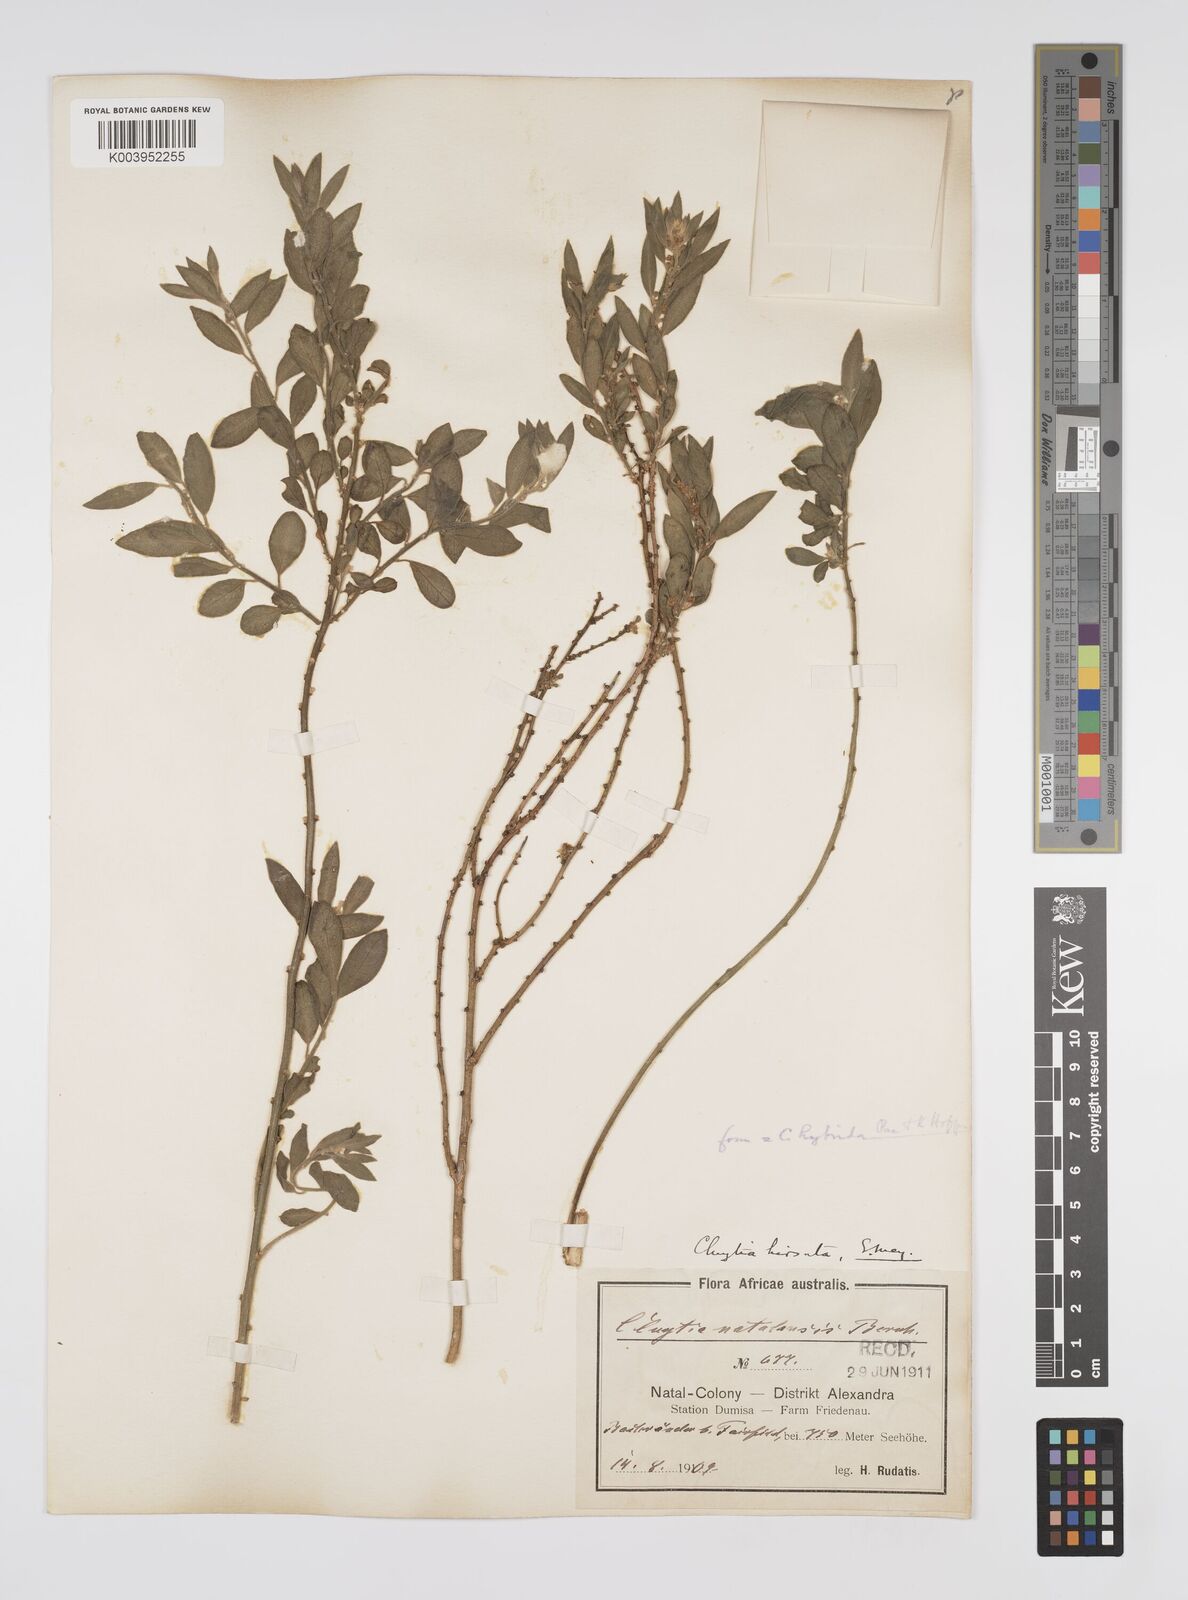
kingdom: Plantae
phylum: Tracheophyta
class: Magnoliopsida
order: Malpighiales
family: Peraceae
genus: Clutia
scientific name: Clutia hybrida
